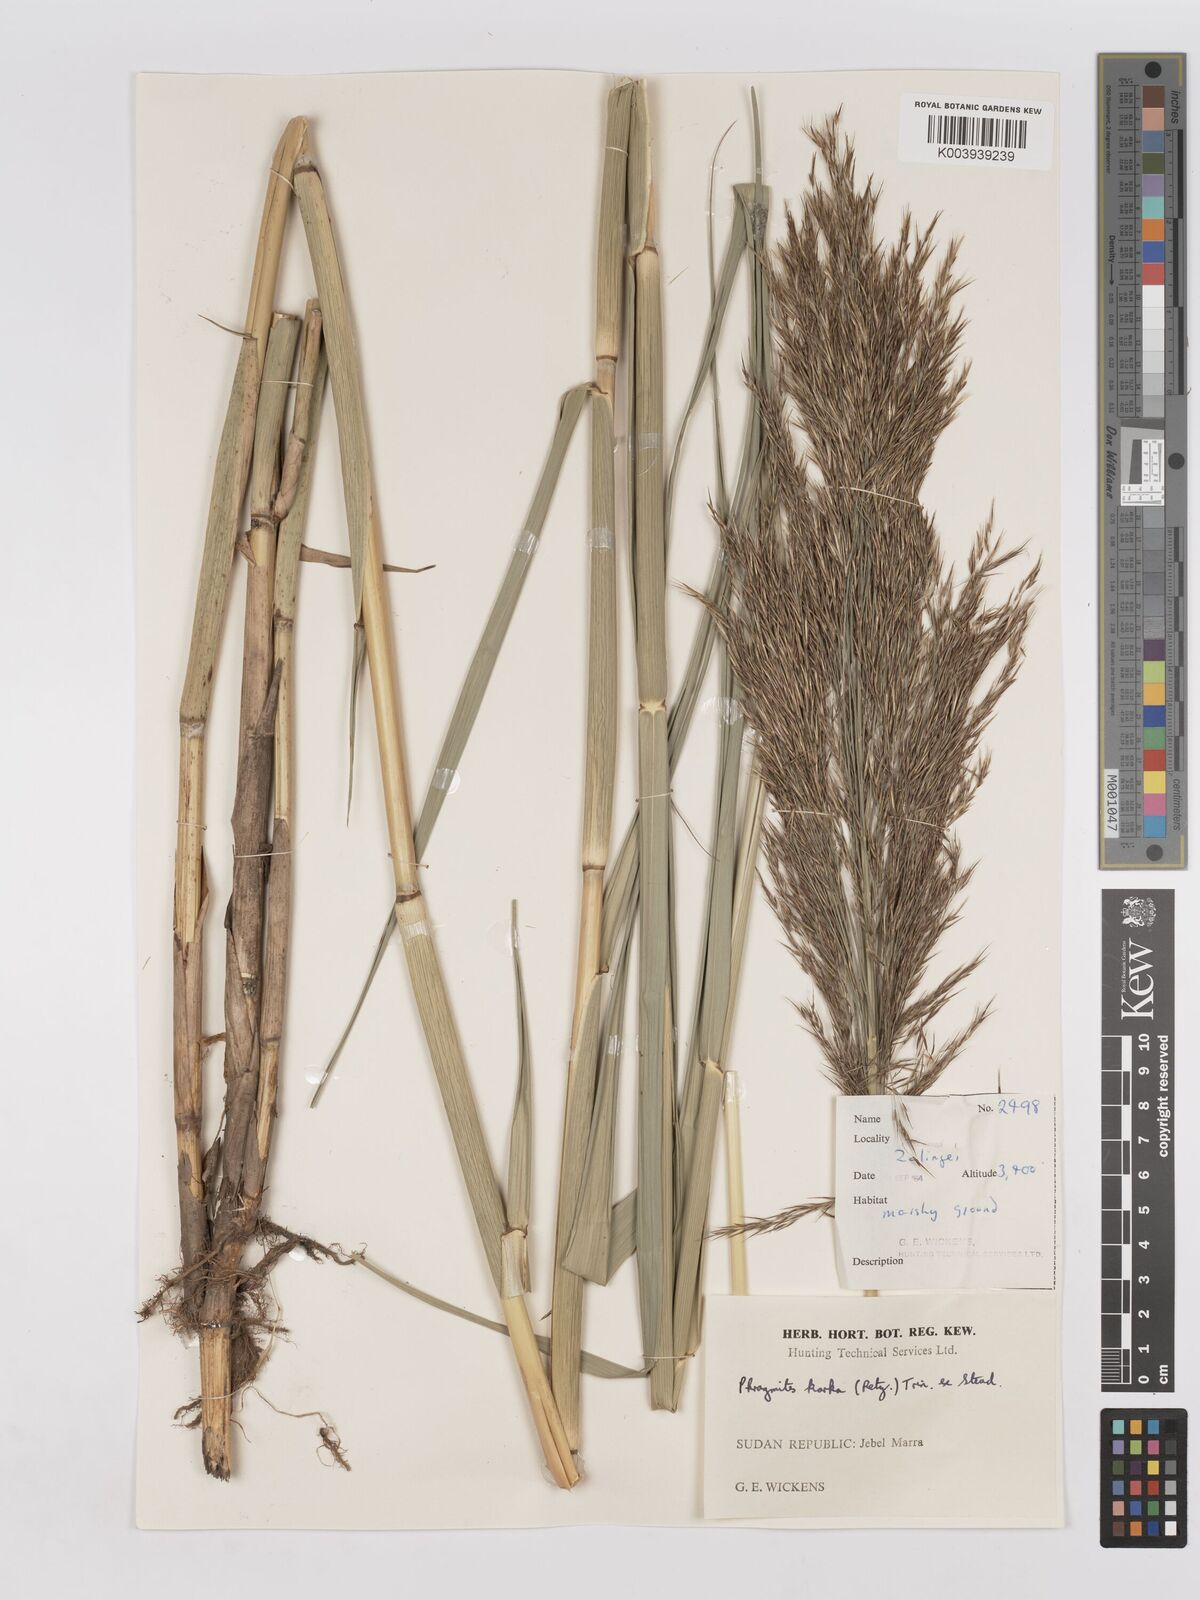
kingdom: Plantae
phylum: Tracheophyta
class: Liliopsida
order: Poales
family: Poaceae
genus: Phragmites
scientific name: Phragmites karka
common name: Tropical reed
